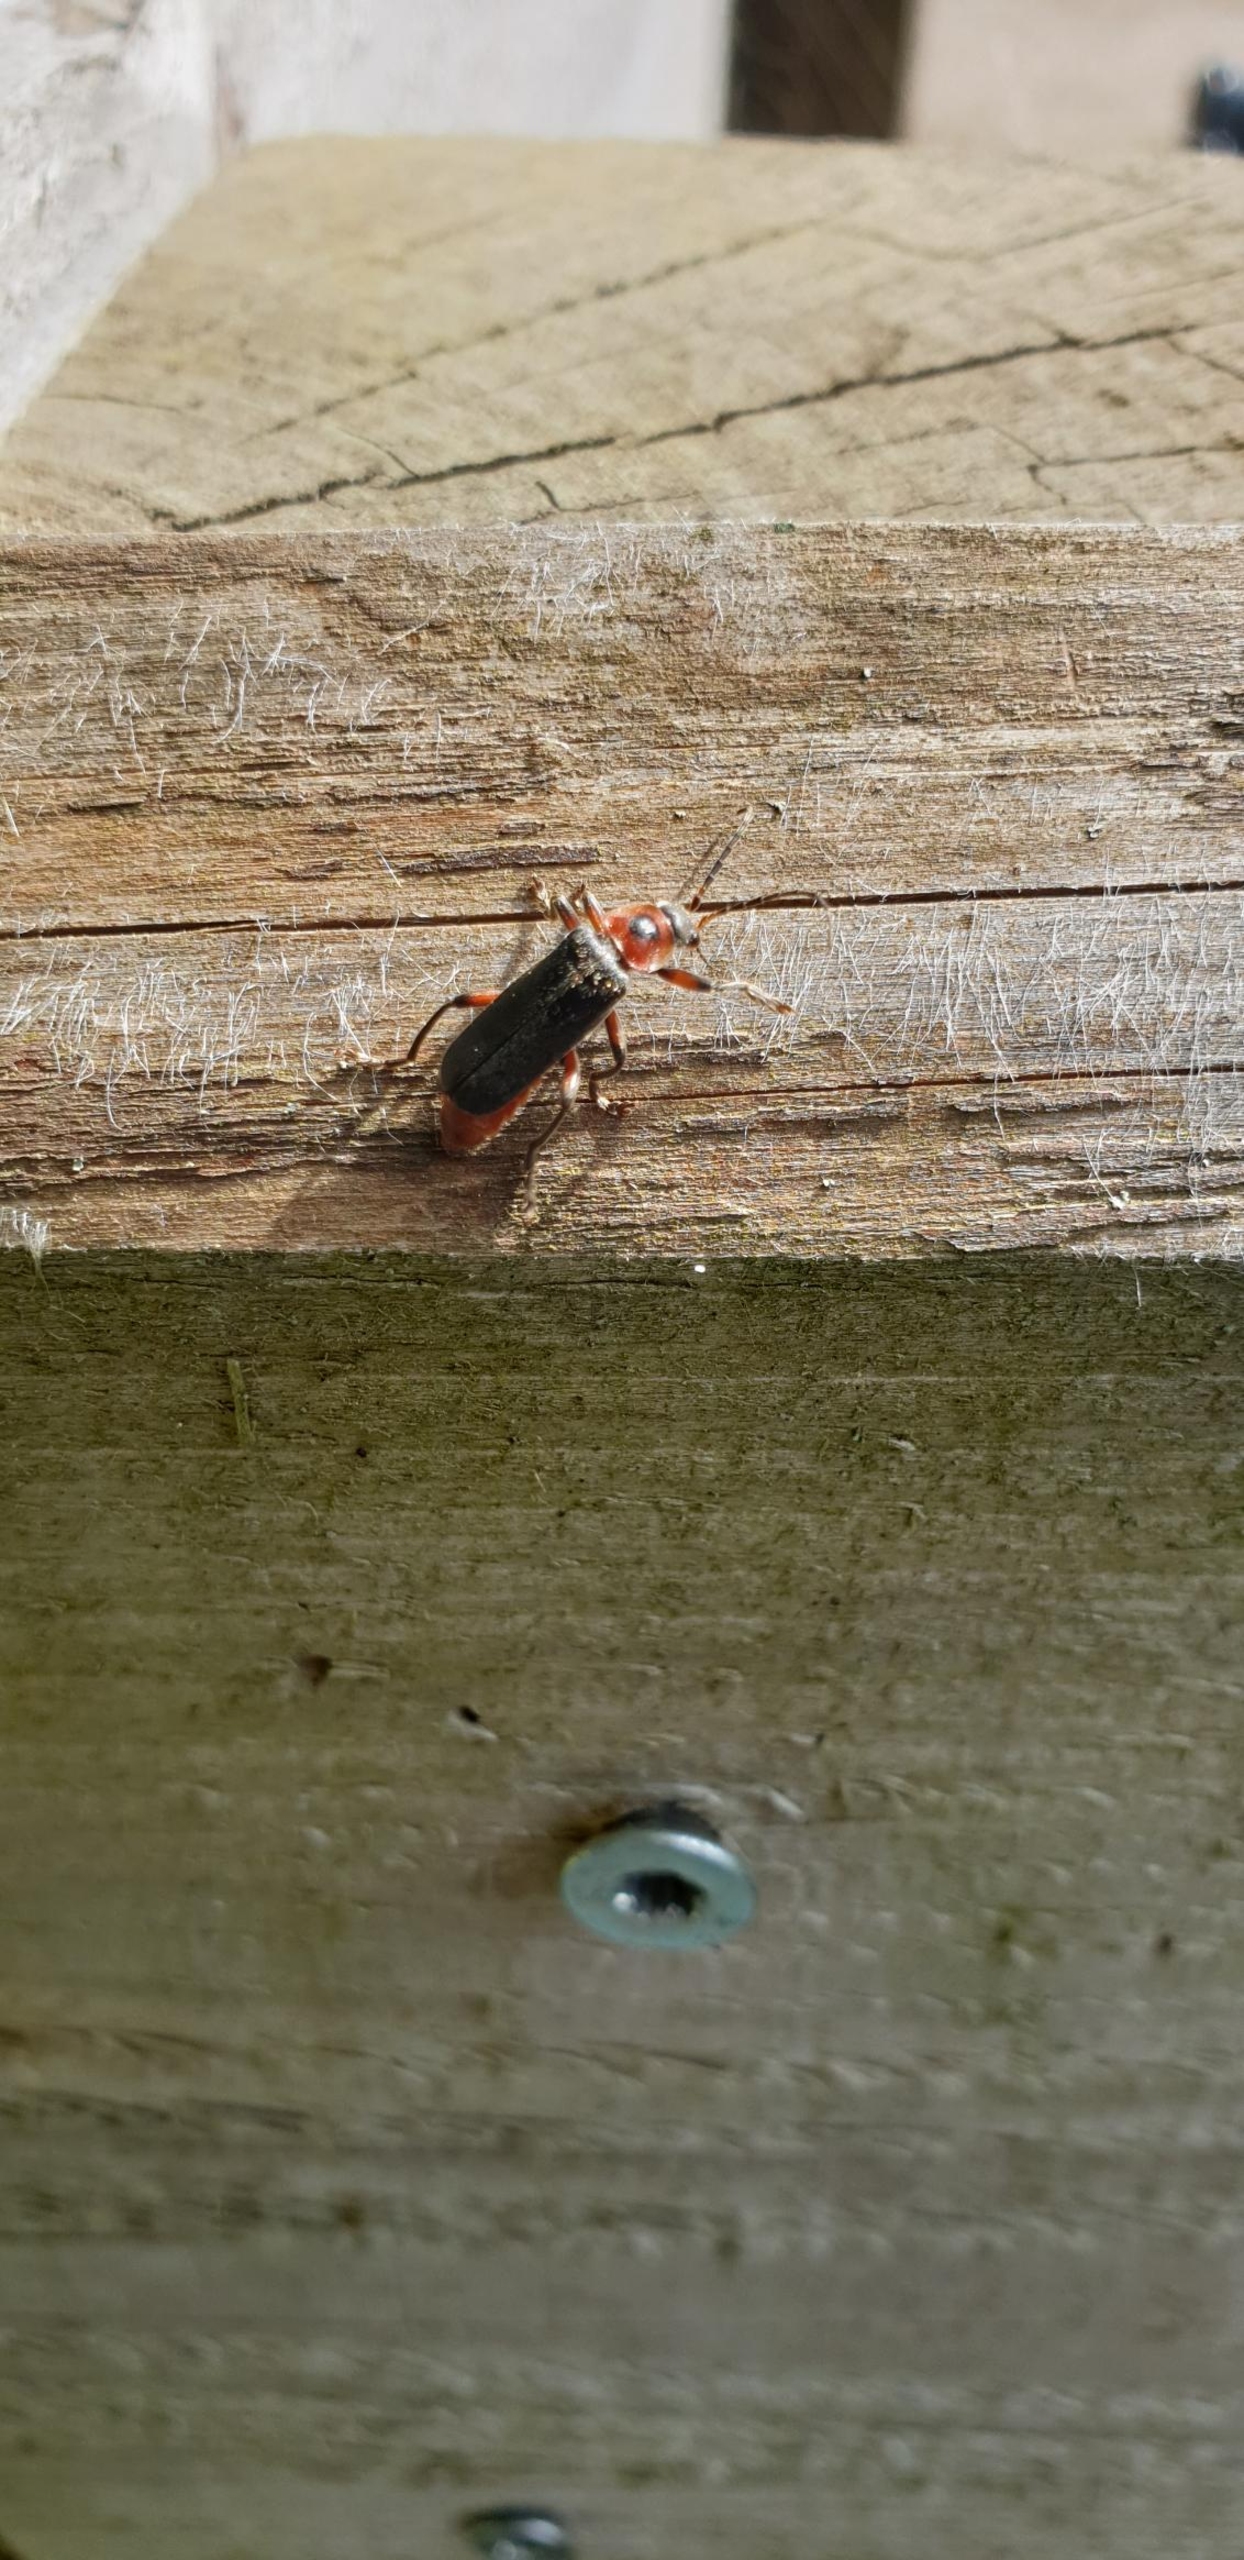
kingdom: Animalia
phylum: Arthropoda
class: Insecta
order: Coleoptera
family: Cantharidae
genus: Cantharis
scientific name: Cantharis rustica
